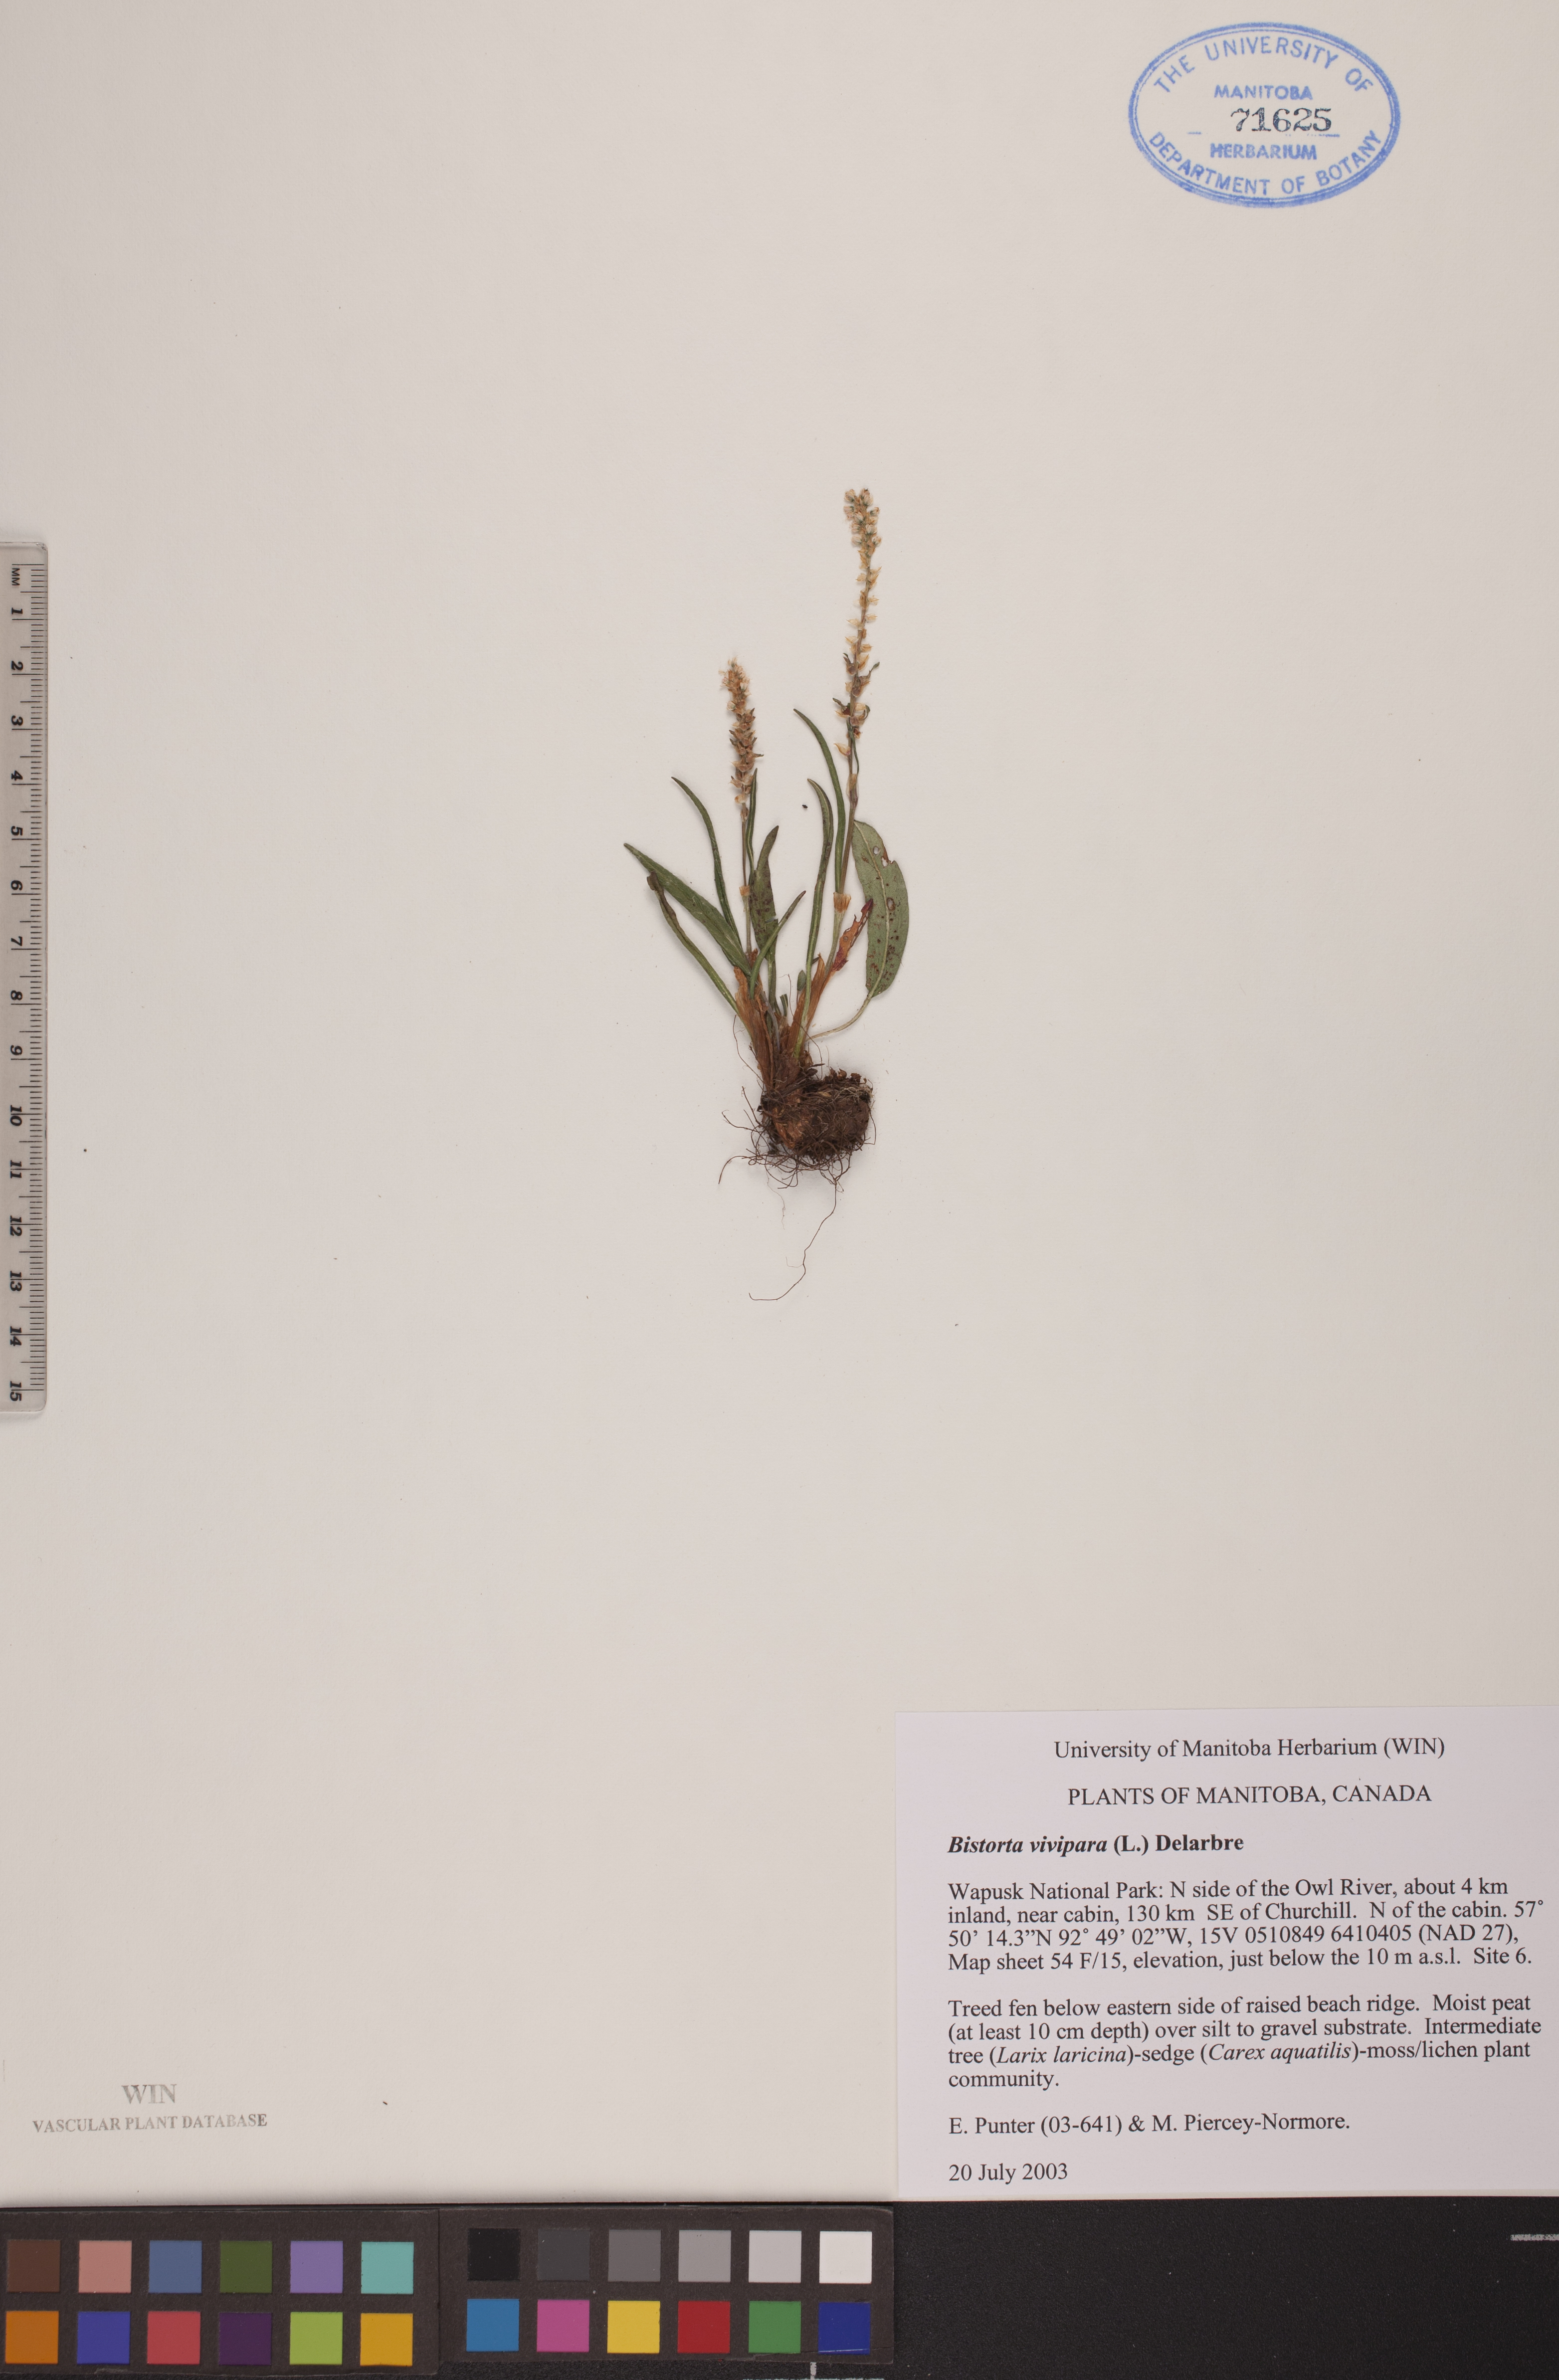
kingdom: Plantae
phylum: Tracheophyta
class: Magnoliopsida
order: Caryophyllales
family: Polygonaceae
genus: Bistorta
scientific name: Bistorta vivipara
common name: Alpine bistort
